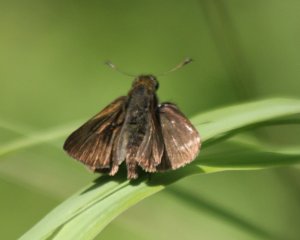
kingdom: Animalia
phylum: Arthropoda
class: Insecta
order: Lepidoptera
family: Hesperiidae
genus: Euphyes
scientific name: Euphyes vestris
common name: Dun Skipper
